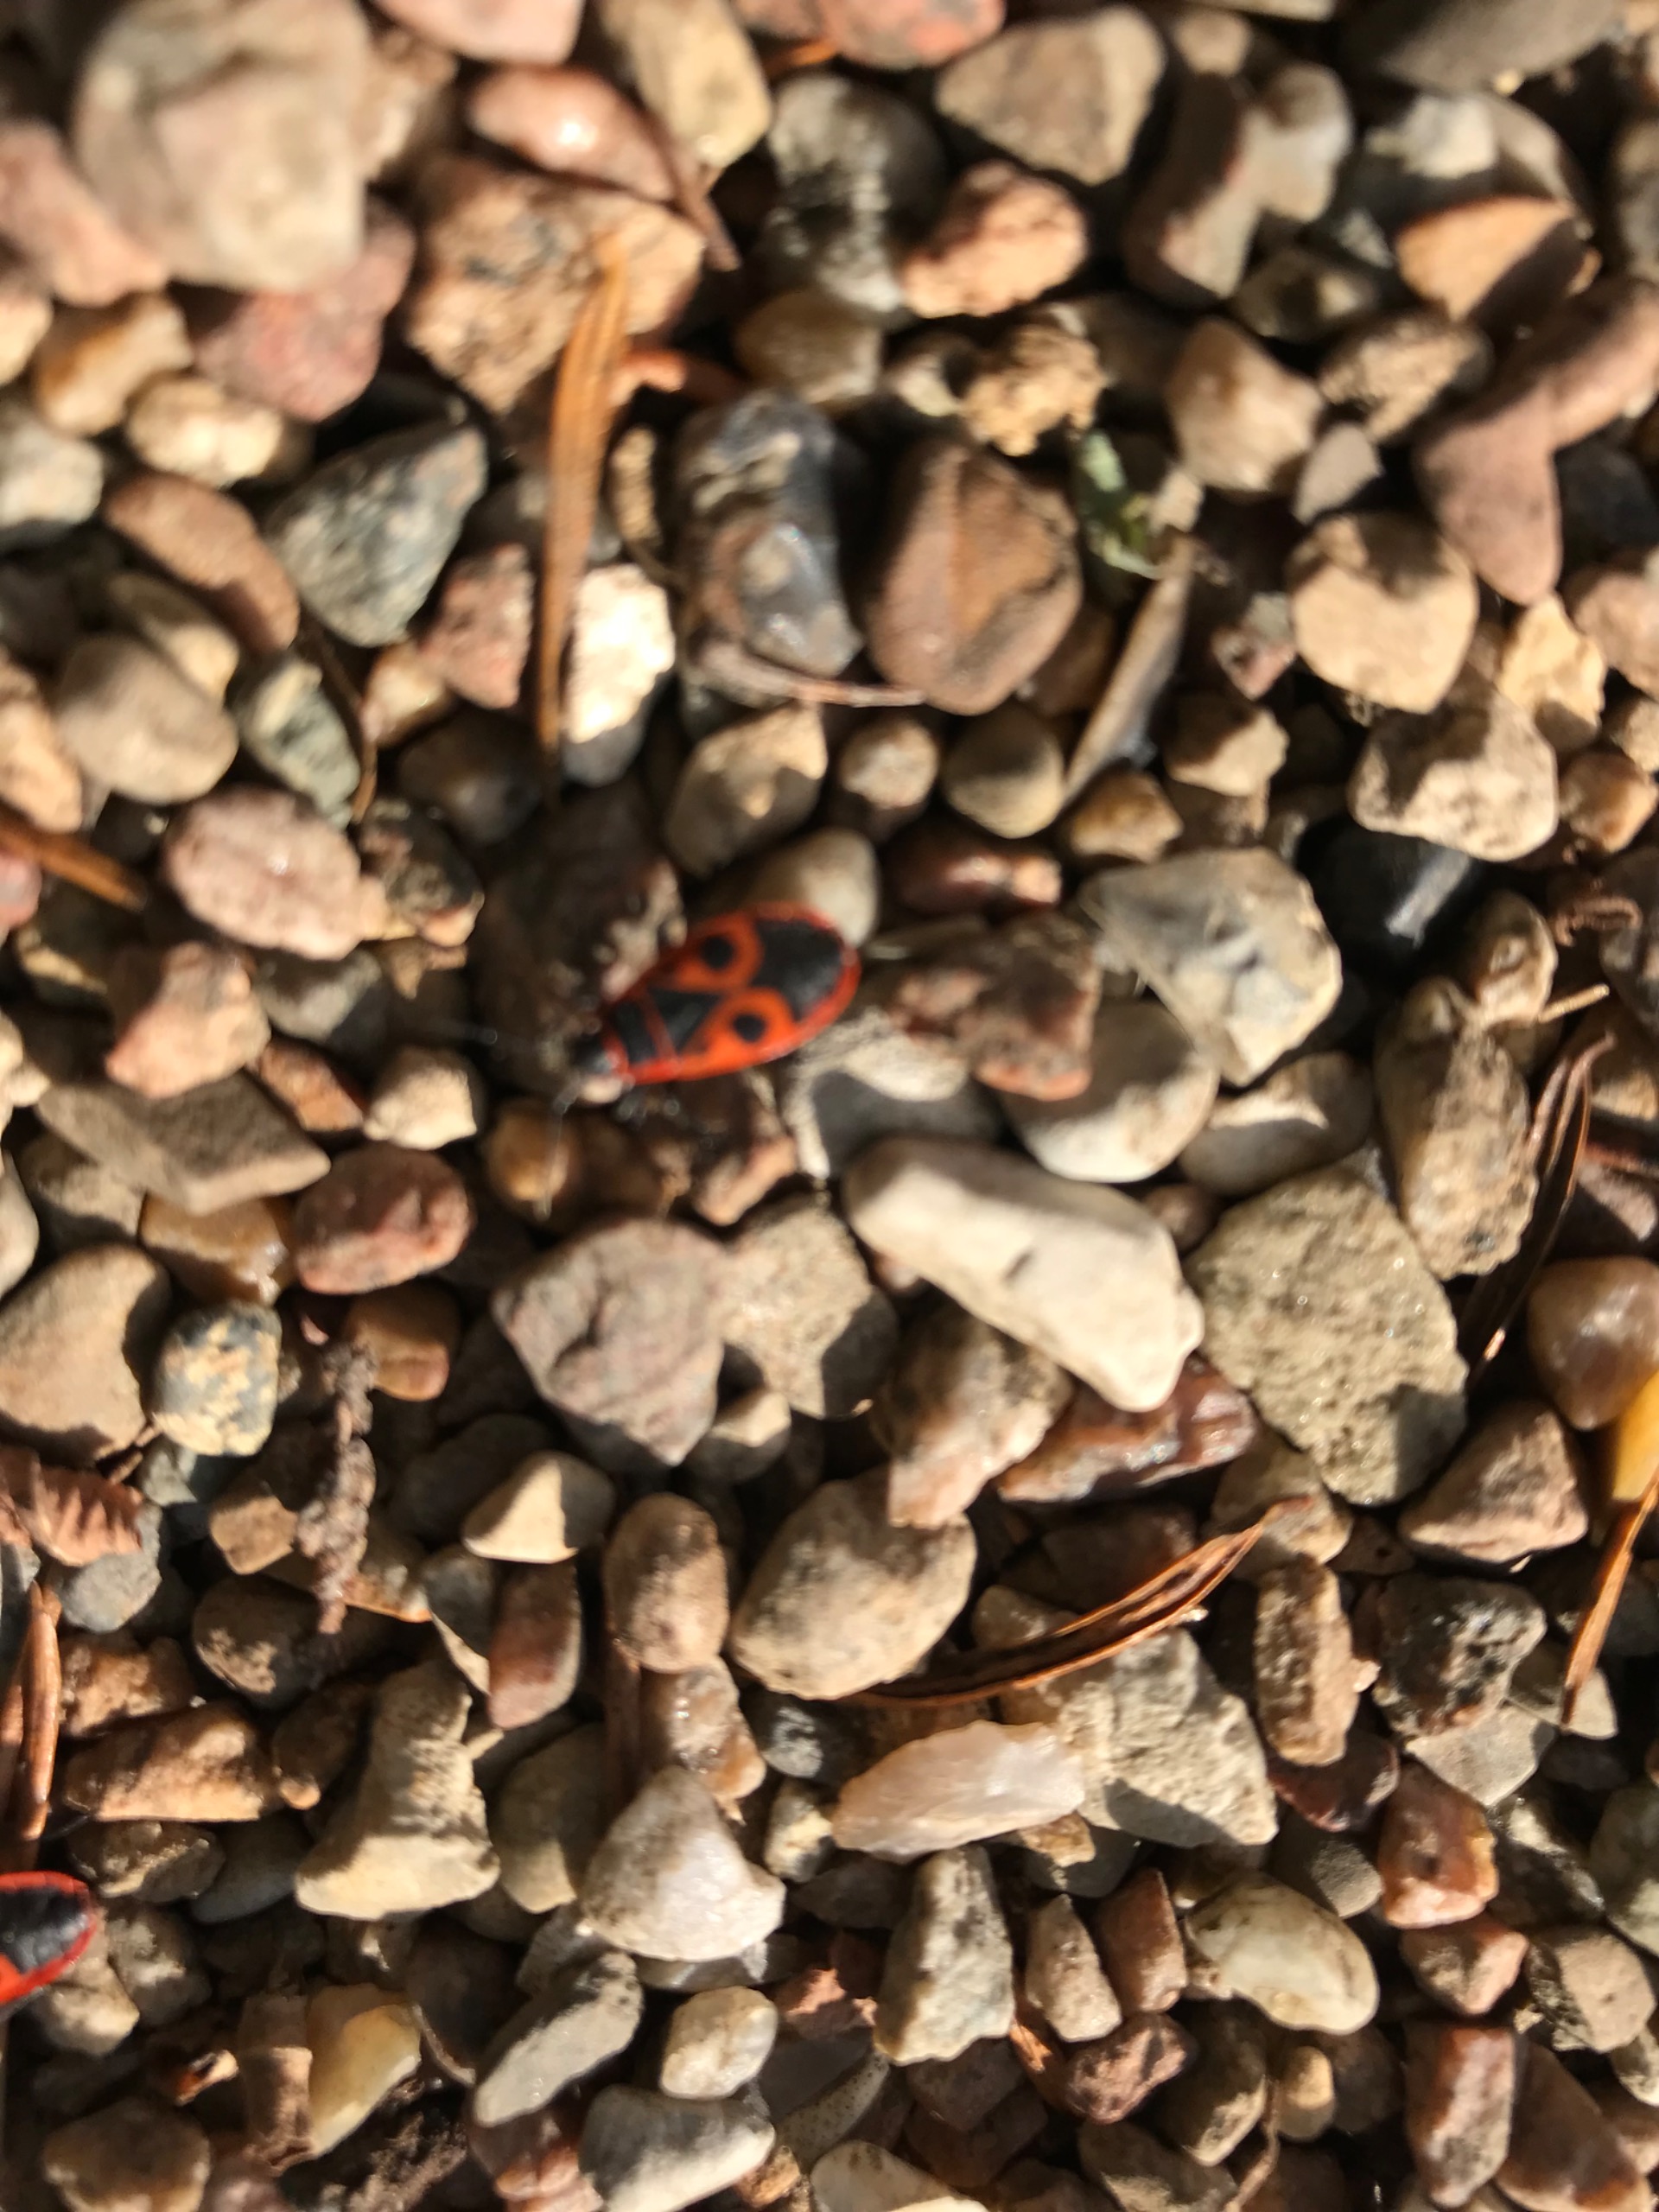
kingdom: Animalia
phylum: Arthropoda
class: Insecta
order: Hemiptera
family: Pyrrhocoridae
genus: Pyrrhocoris
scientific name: Pyrrhocoris apterus
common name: Ildtæge
